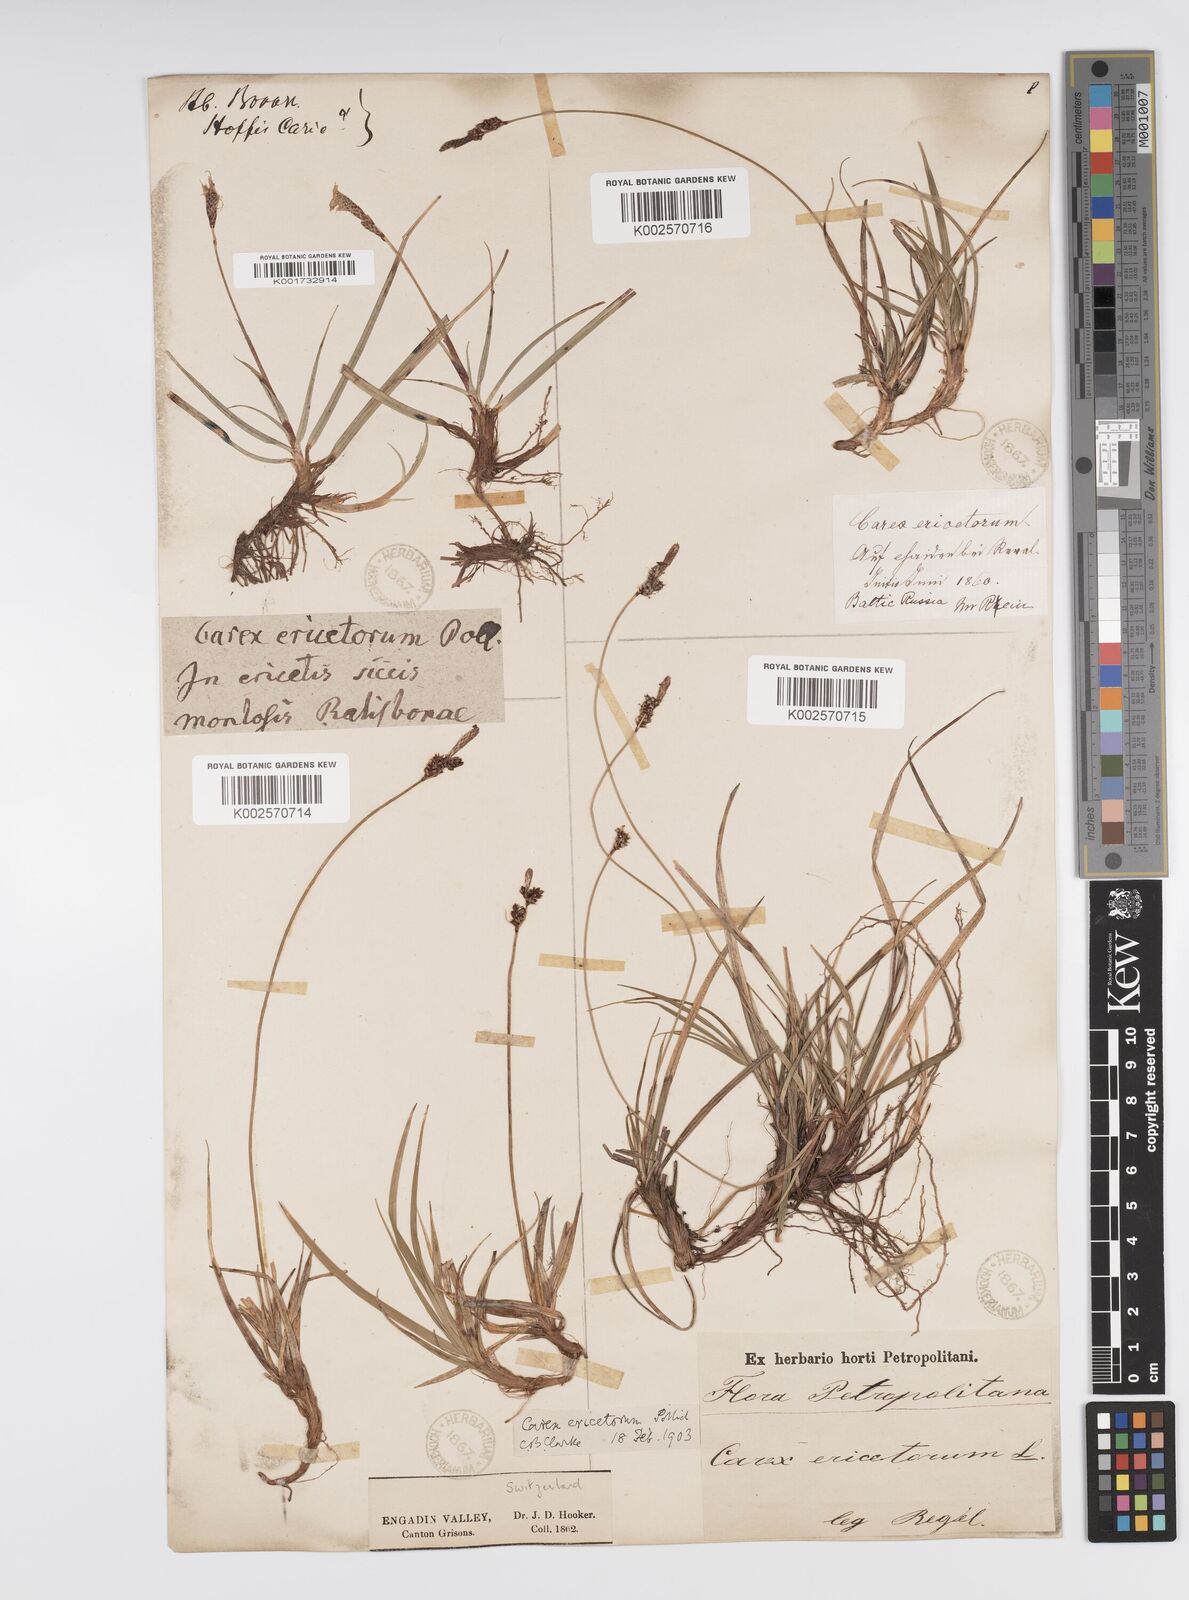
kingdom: Plantae
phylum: Tracheophyta
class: Liliopsida
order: Poales
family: Cyperaceae
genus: Carex
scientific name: Carex ericetorum
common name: Rare spring-sedge
